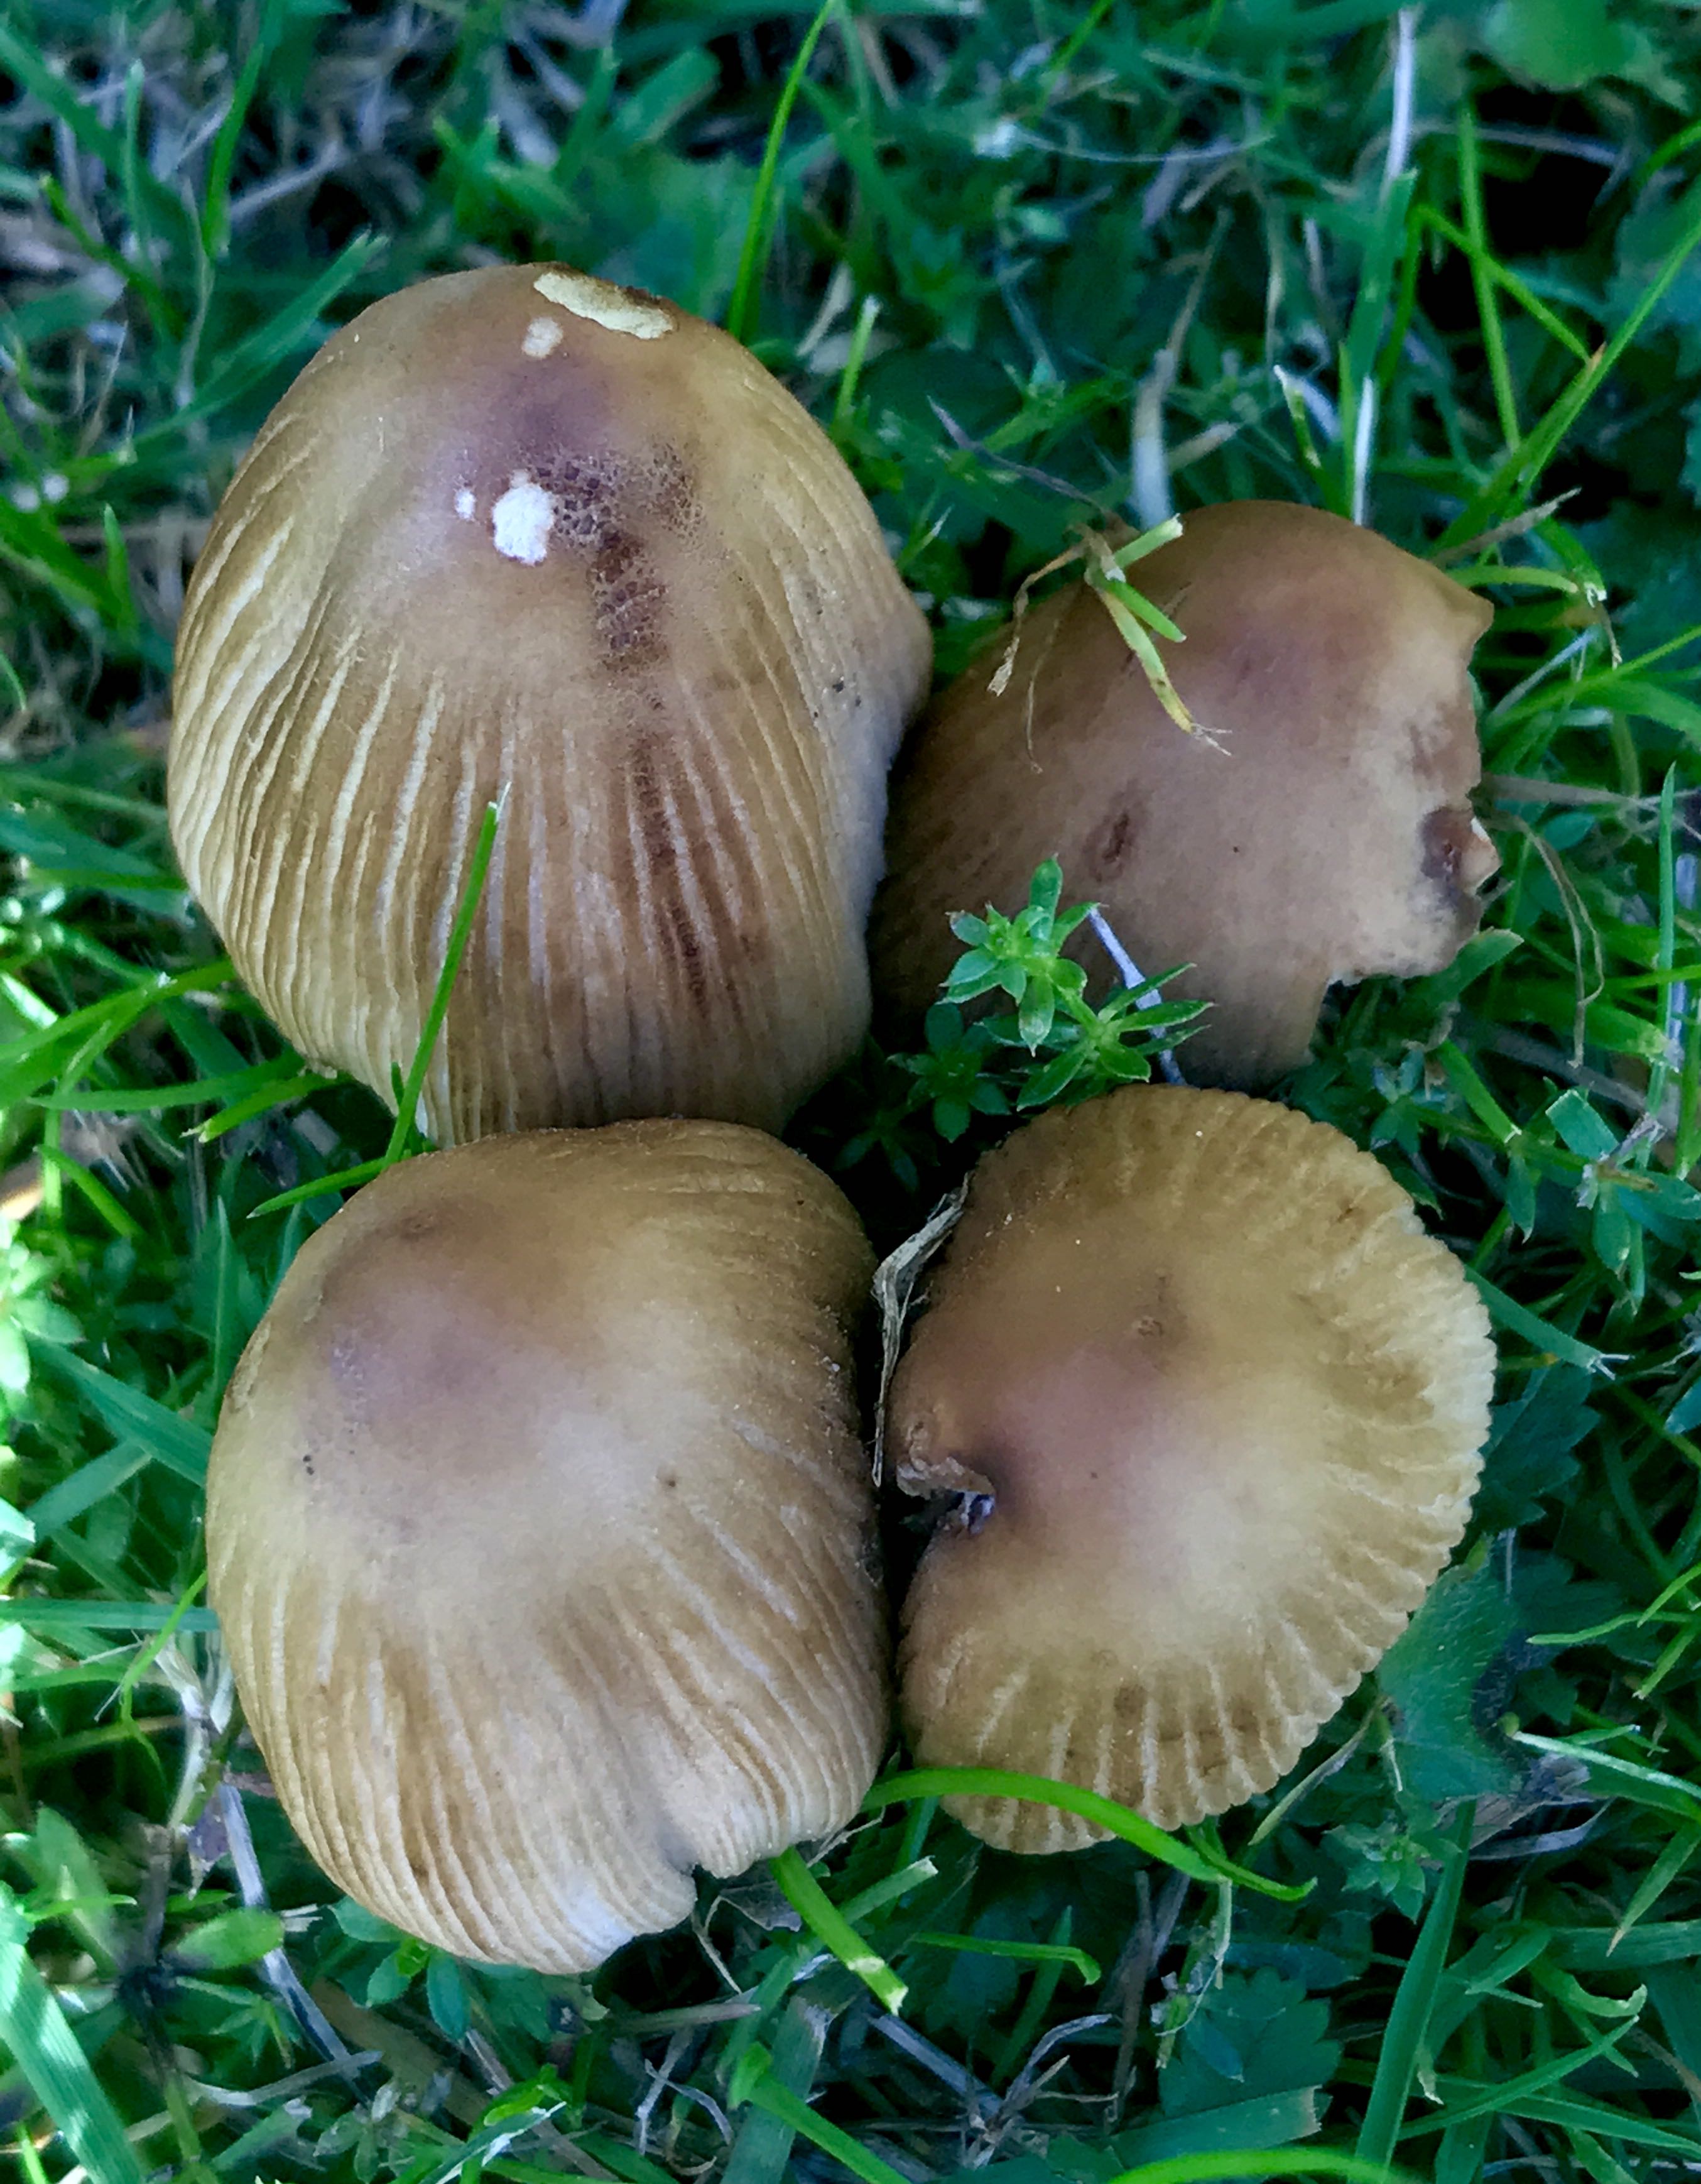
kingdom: Fungi
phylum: Basidiomycota
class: Agaricomycetes
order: Agaricales
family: Psathyrellaceae
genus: Coprinellus
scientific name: Coprinellus micaceus
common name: glimmer-blækhat
